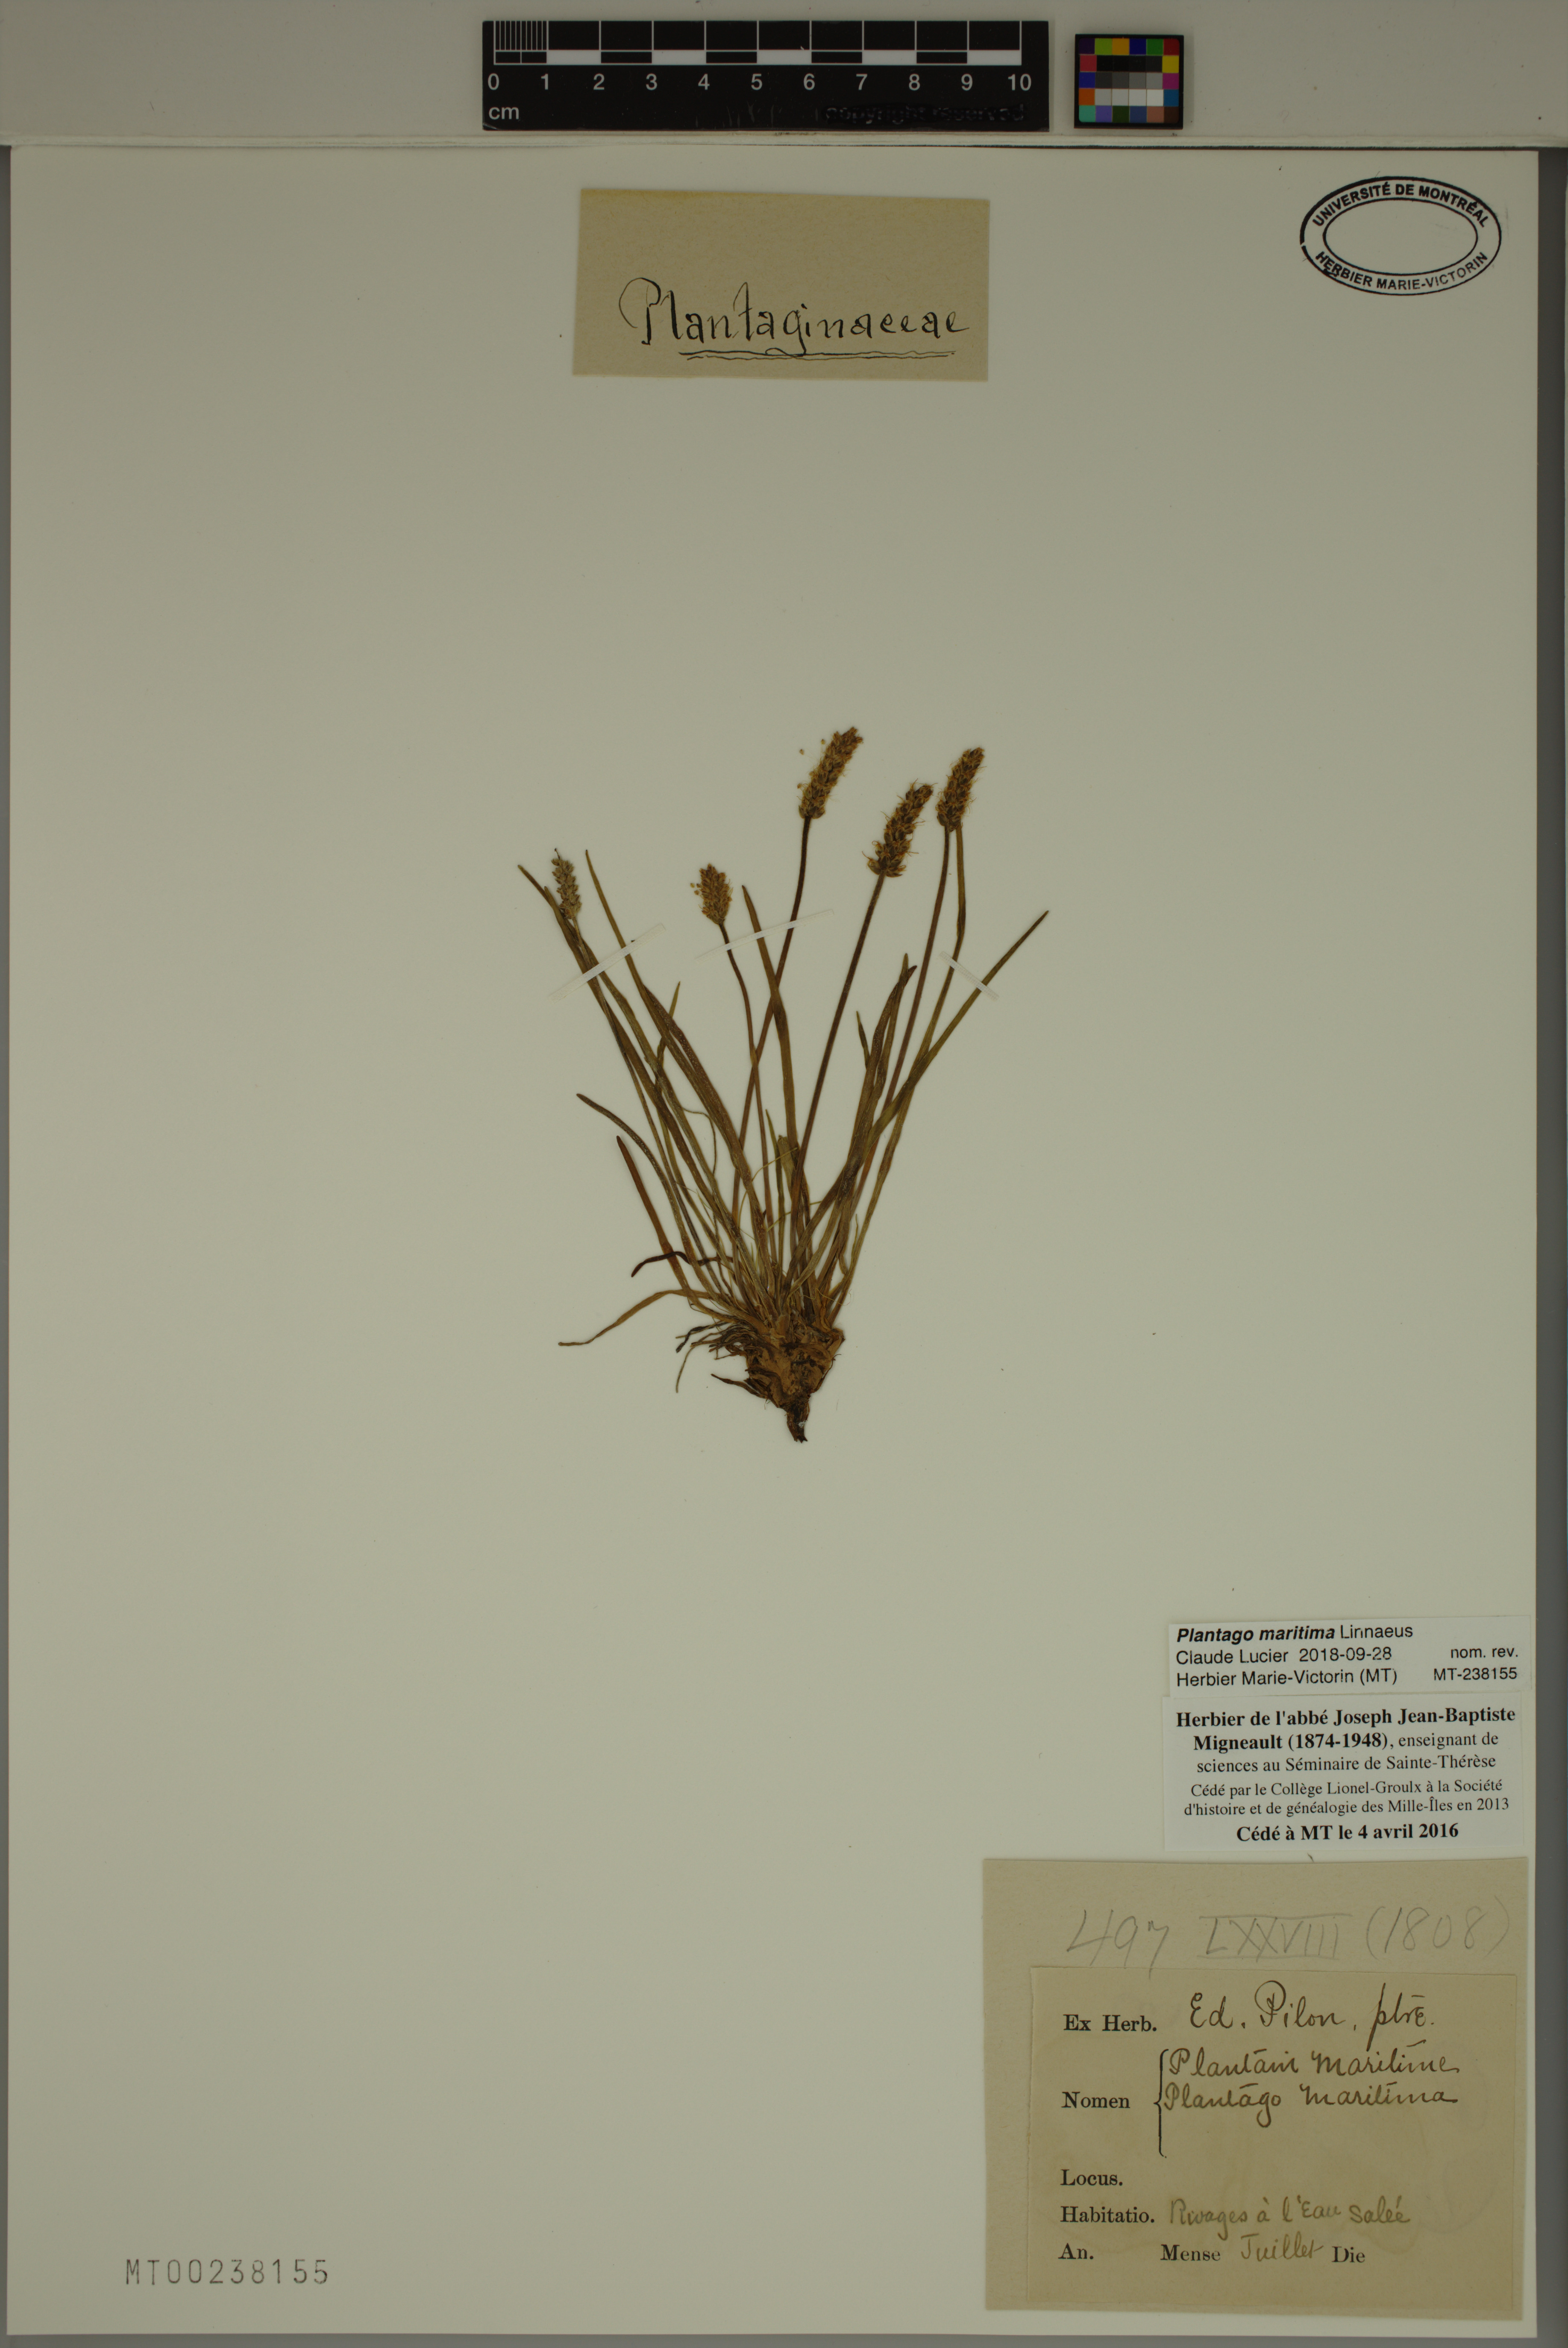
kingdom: Plantae
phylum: Tracheophyta
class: Magnoliopsida
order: Lamiales
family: Plantaginaceae
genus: Plantago
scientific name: Plantago maritima
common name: Sea plantain
